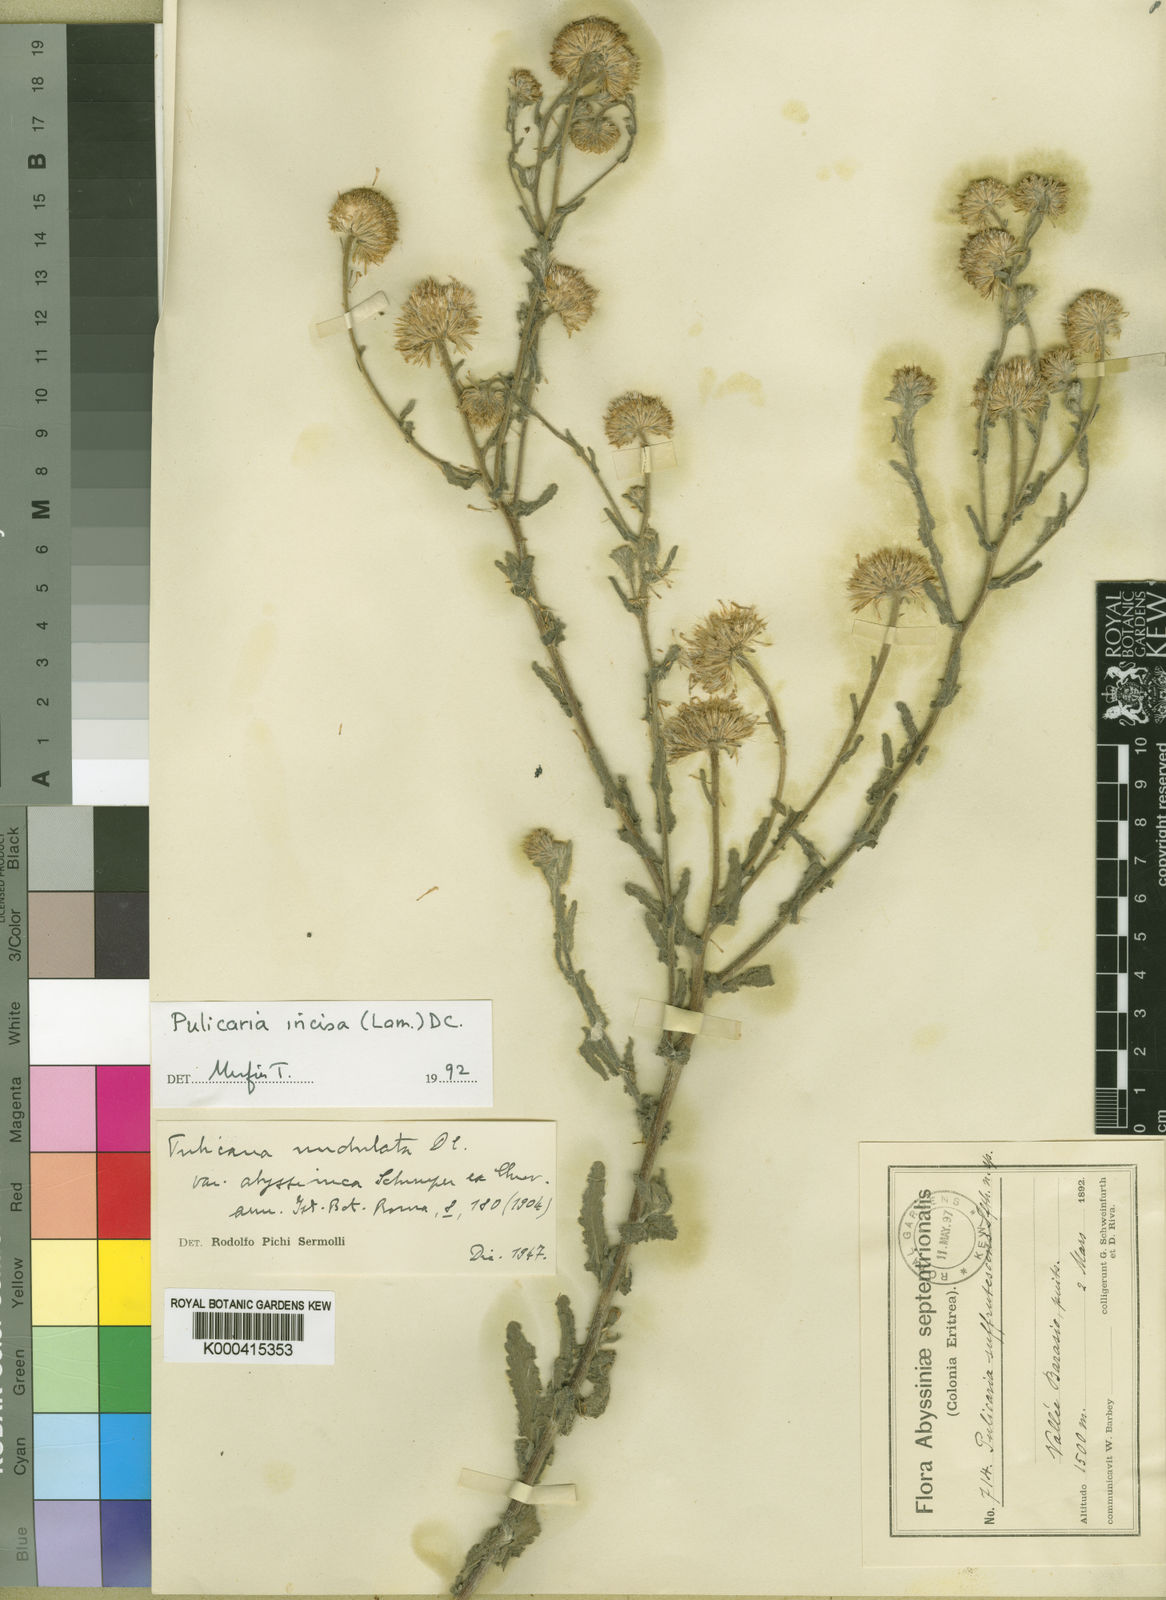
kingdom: Plantae
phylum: Tracheophyta
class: Magnoliopsida
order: Asterales
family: Asteraceae
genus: Pulicaria
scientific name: Pulicaria
